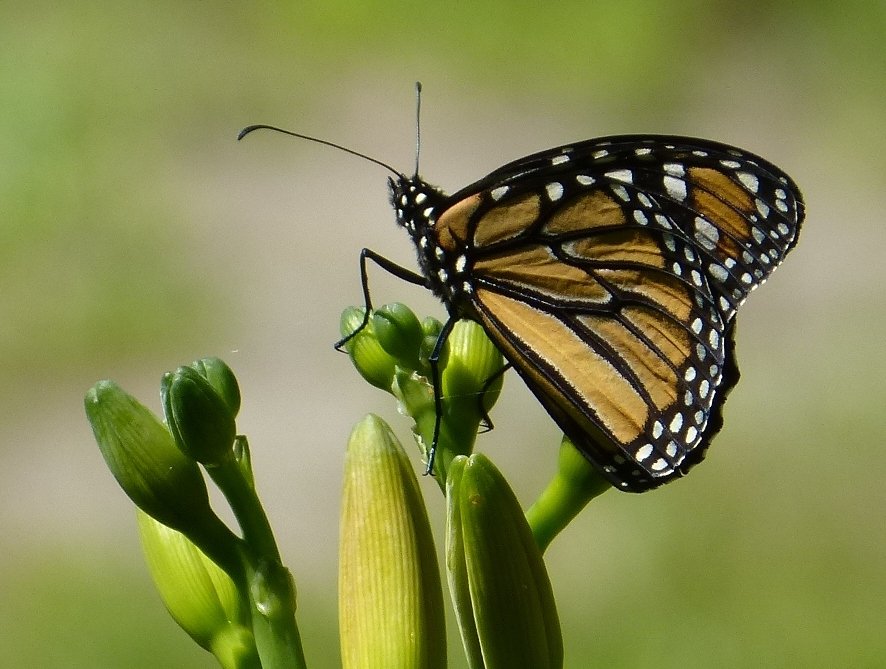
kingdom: Animalia
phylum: Arthropoda
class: Insecta
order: Lepidoptera
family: Nymphalidae
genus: Danaus
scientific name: Danaus plexippus
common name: Monarch
